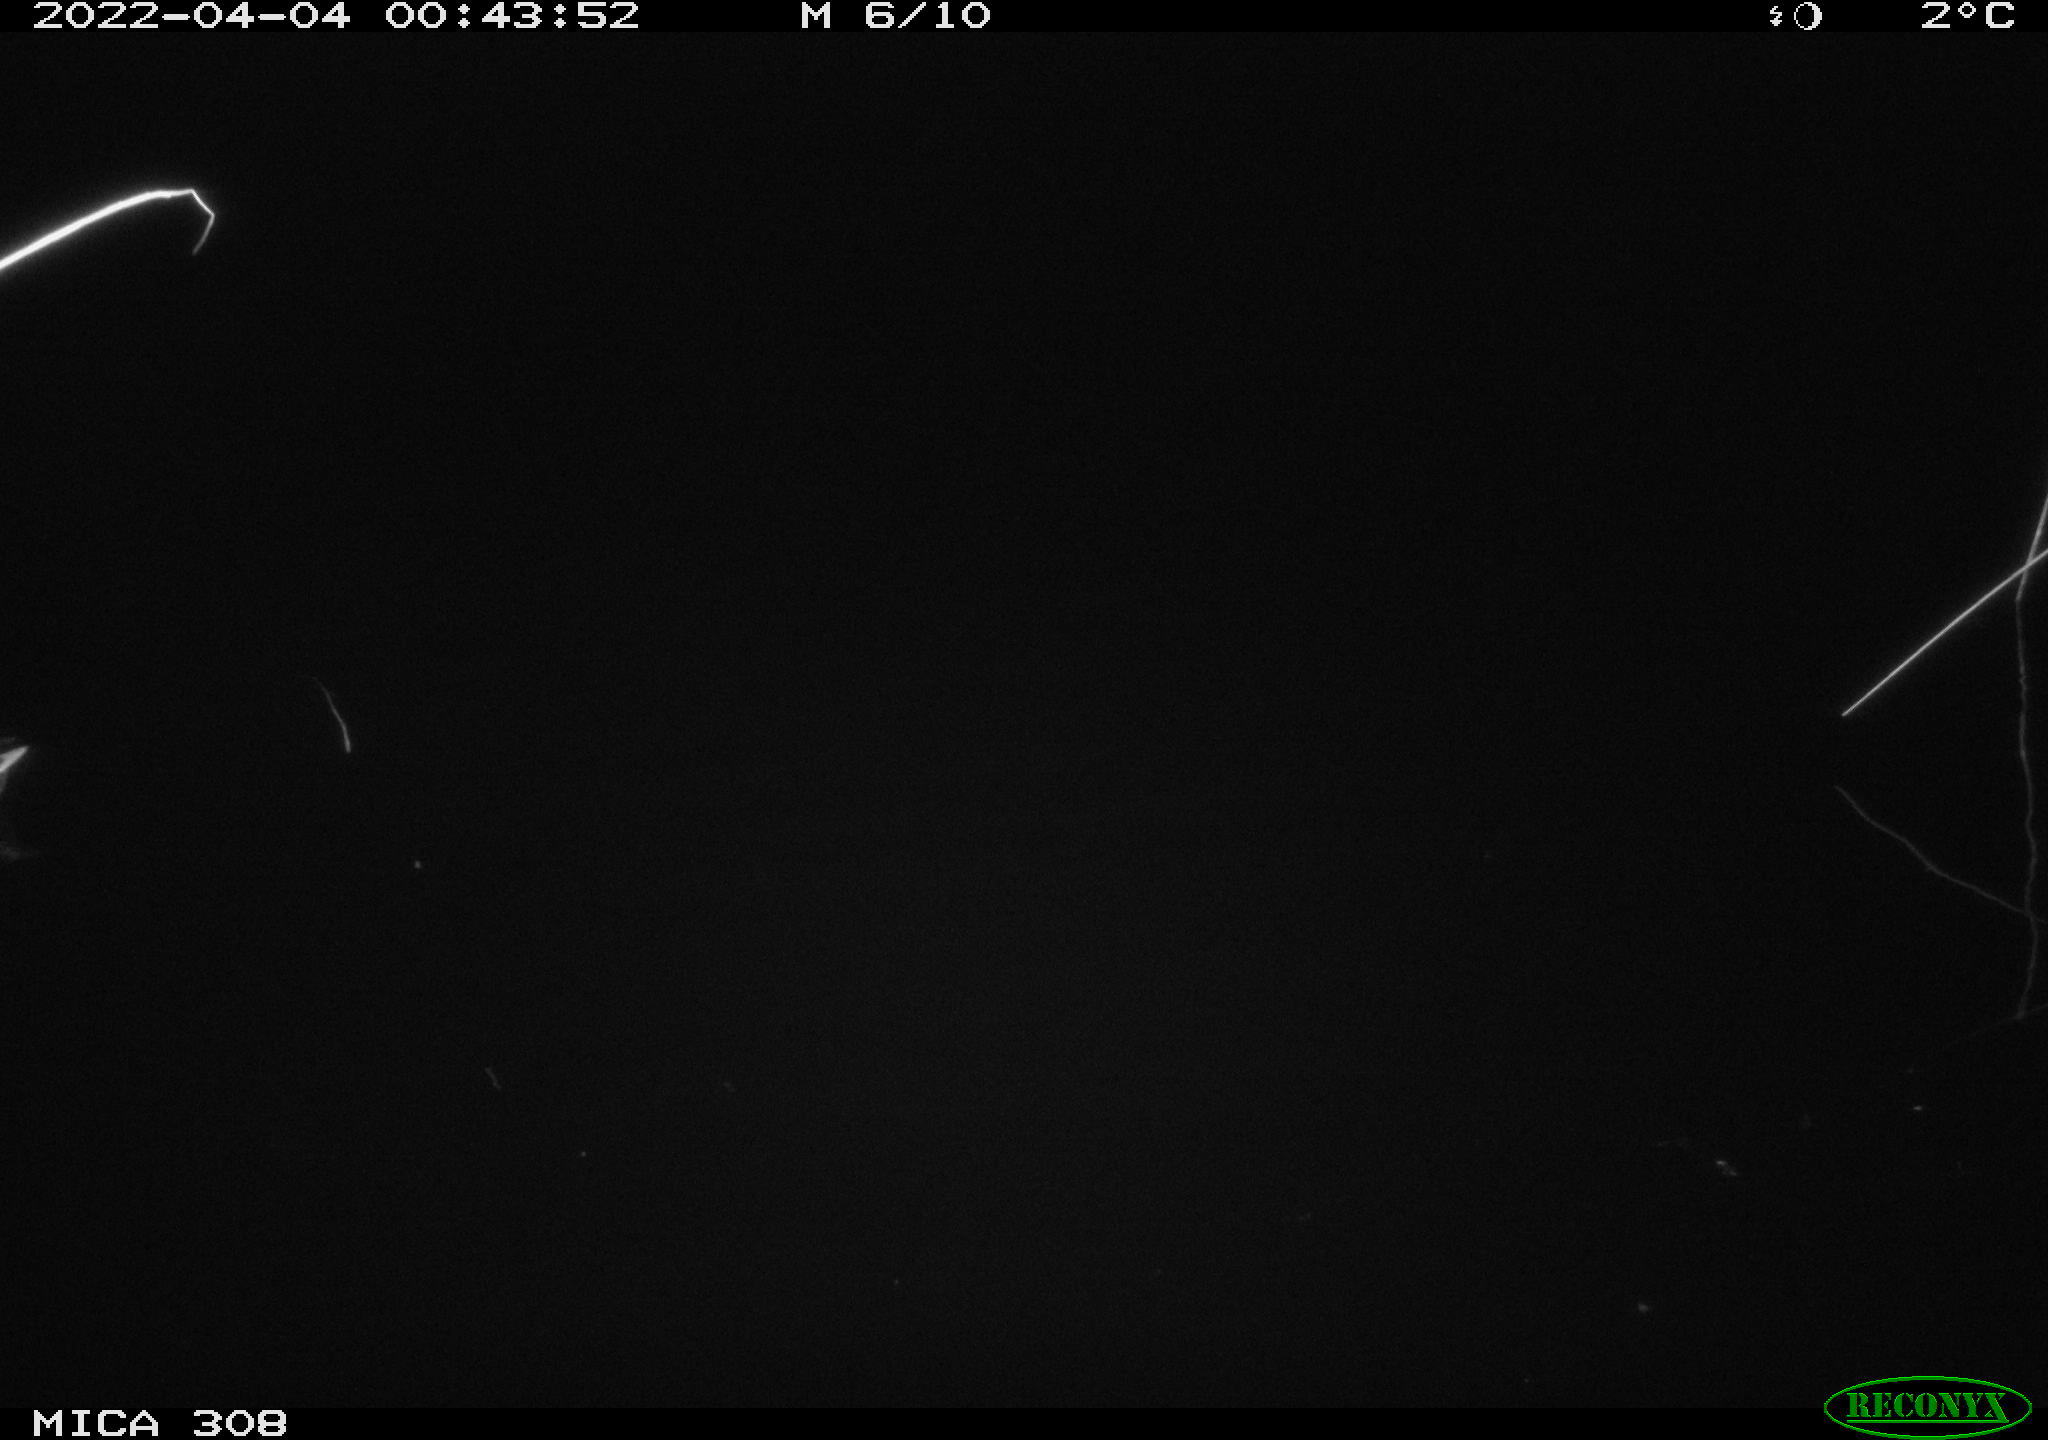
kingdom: Animalia
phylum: Chordata
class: Aves
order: Anseriformes
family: Anatidae
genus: Anas
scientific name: Anas platyrhynchos
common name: Mallard
